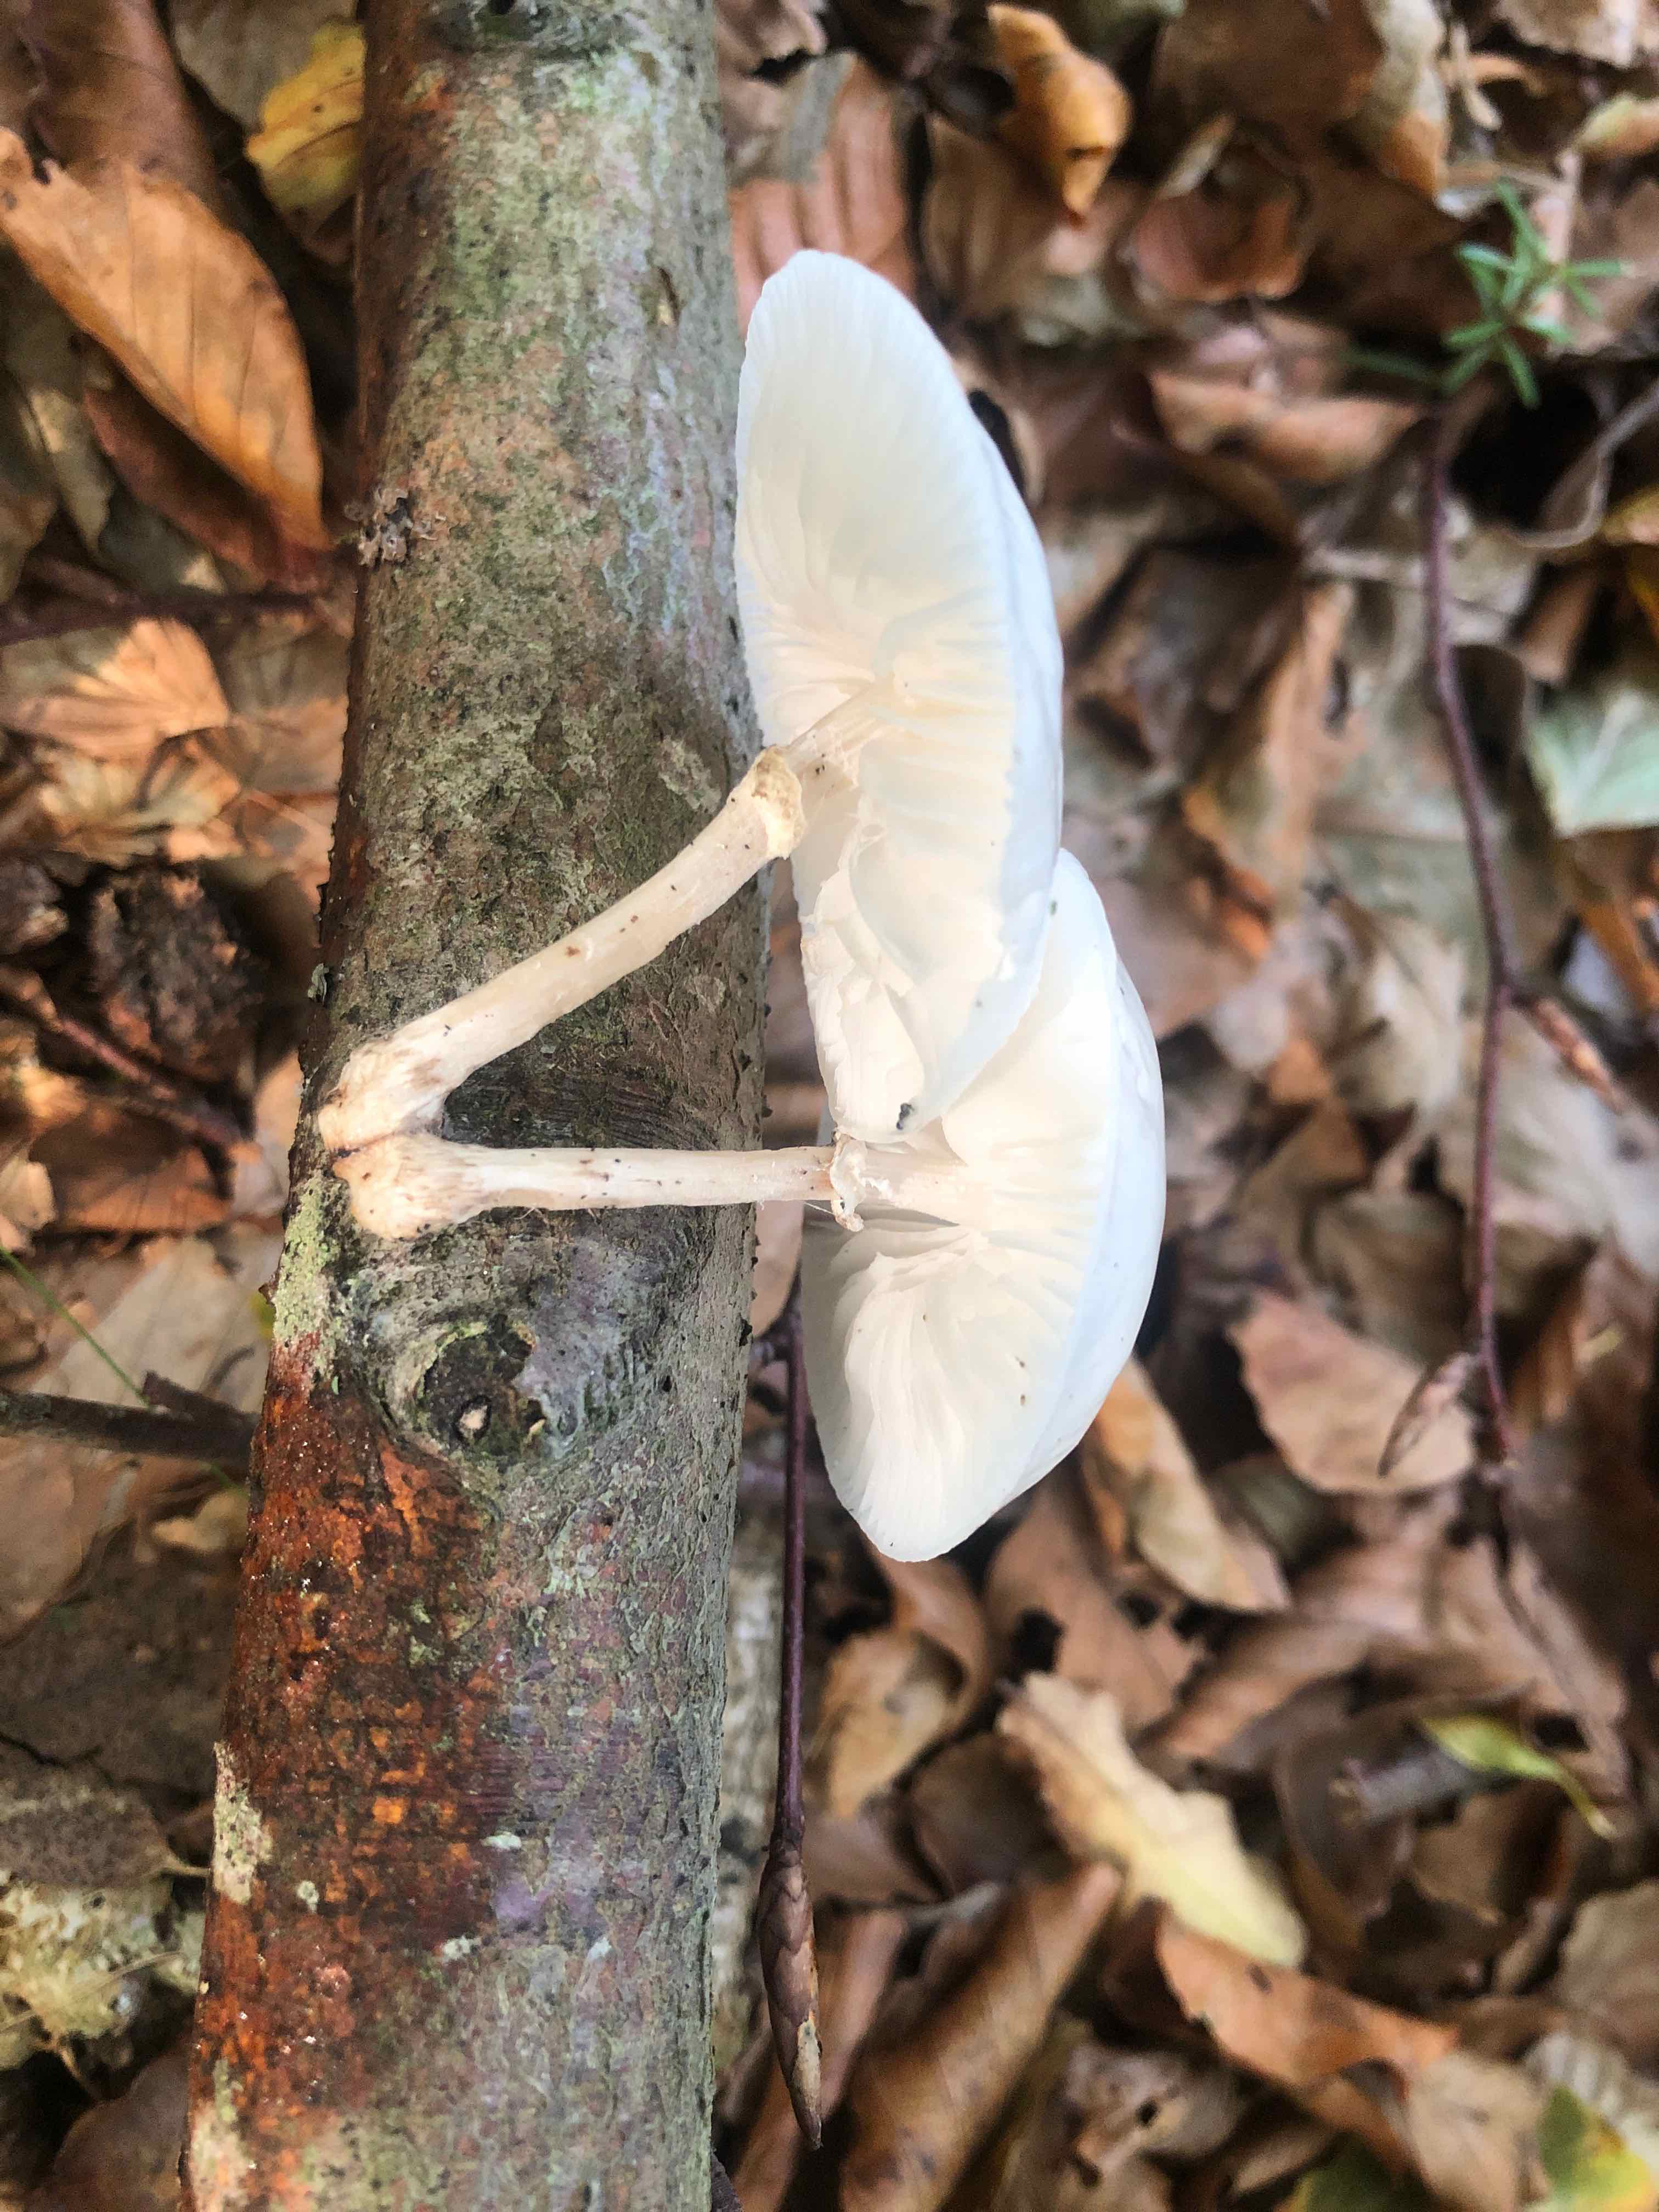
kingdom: Fungi
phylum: Basidiomycota
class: Agaricomycetes
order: Agaricales
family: Physalacriaceae
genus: Mucidula
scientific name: Mucidula mucida
